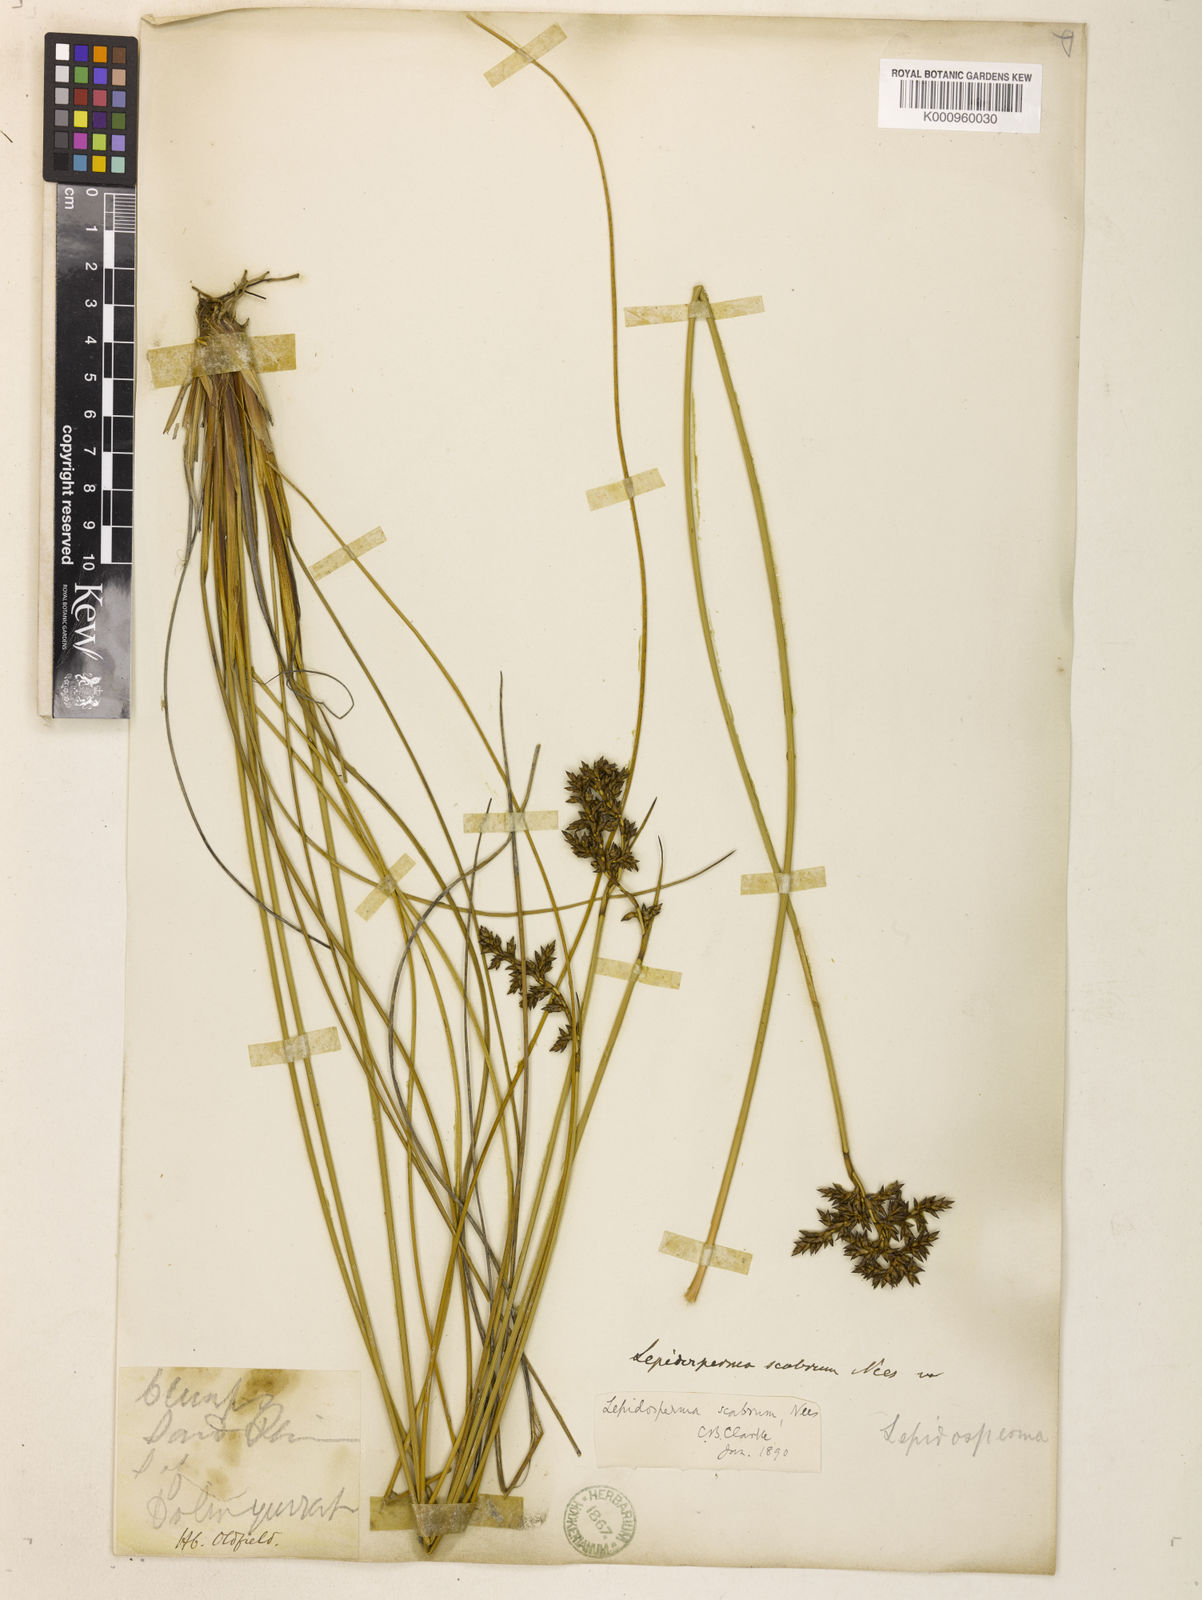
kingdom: Plantae
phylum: Tracheophyta
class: Liliopsida
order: Poales
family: Cyperaceae
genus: Lepidosperma
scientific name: Lepidosperma scabrum
